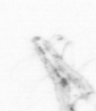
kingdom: Animalia
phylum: Arthropoda
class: Copepoda
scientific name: Copepoda
